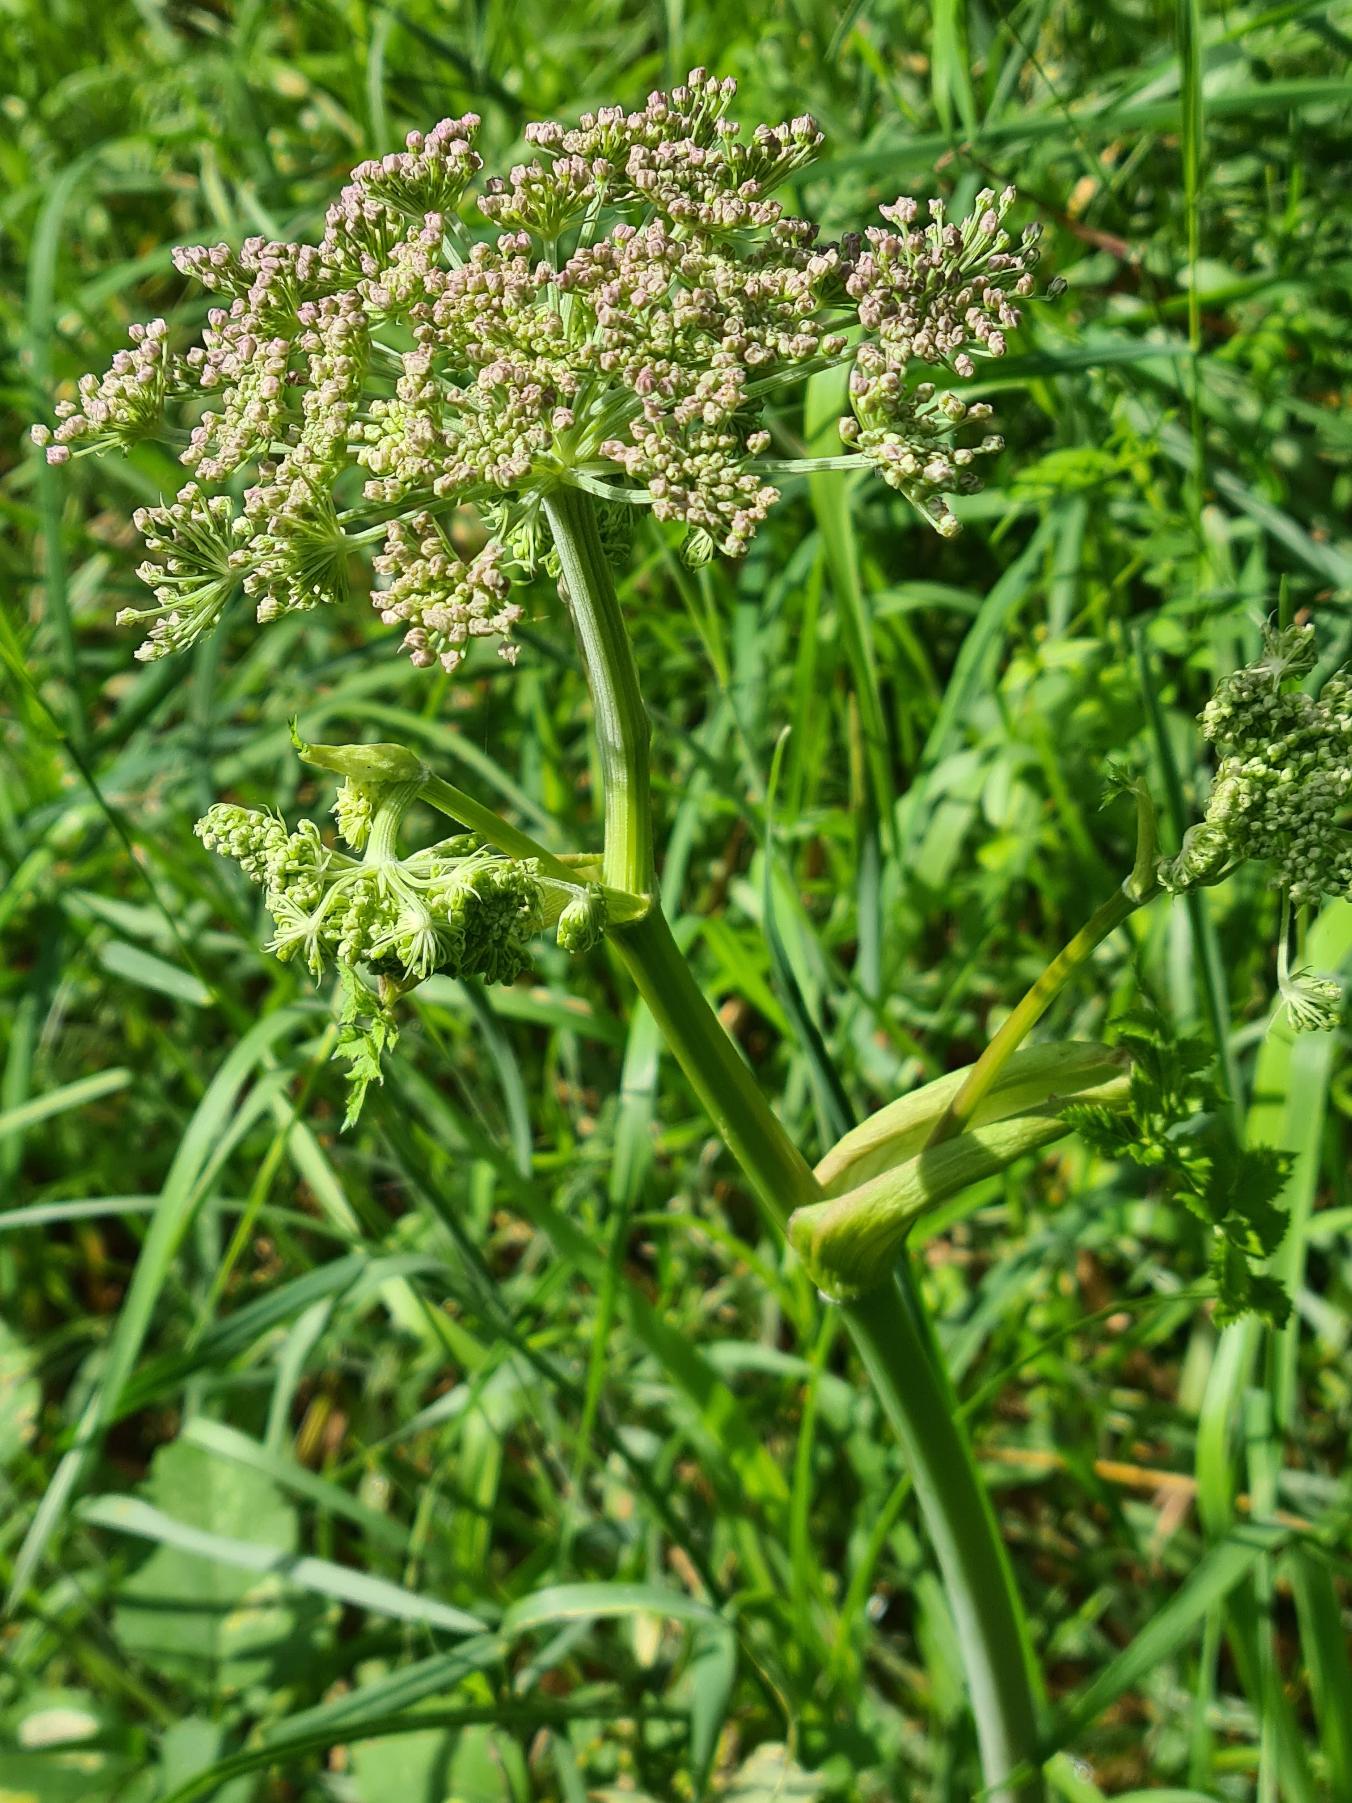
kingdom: Plantae
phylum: Tracheophyta
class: Magnoliopsida
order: Apiales
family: Apiaceae
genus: Angelica
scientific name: Angelica sylvestris
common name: Angelik
